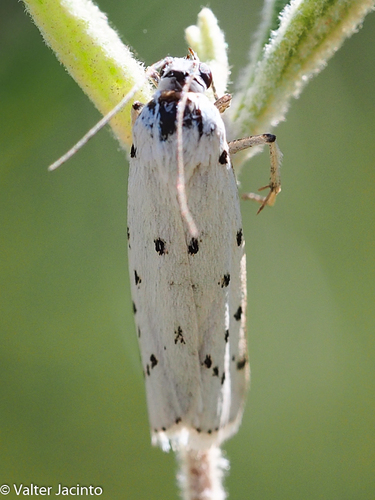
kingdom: Animalia
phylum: Arthropoda
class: Insecta
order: Lepidoptera
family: Ethmiidae
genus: Ethmia
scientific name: Ethmia terminella
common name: Five-spot ermel
